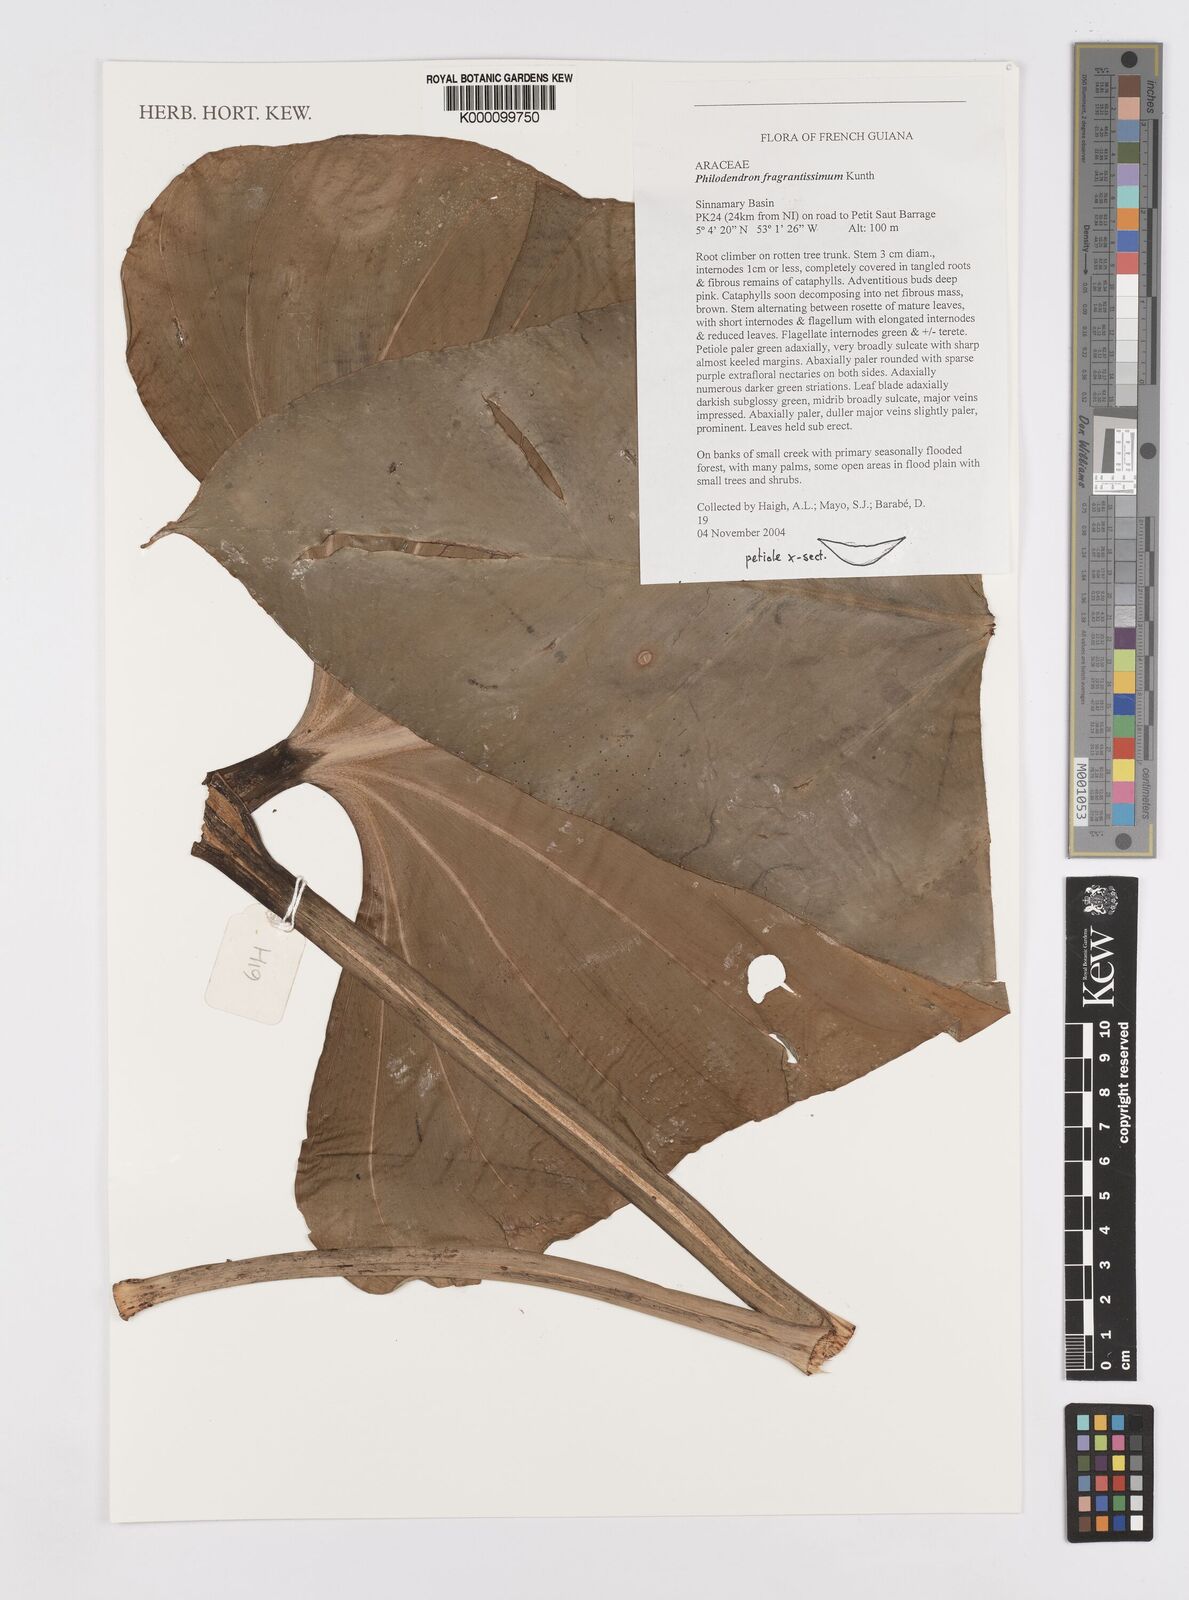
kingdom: Plantae
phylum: Tracheophyta
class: Liliopsida
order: Alismatales
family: Araceae
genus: Philodendron
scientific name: Philodendron
